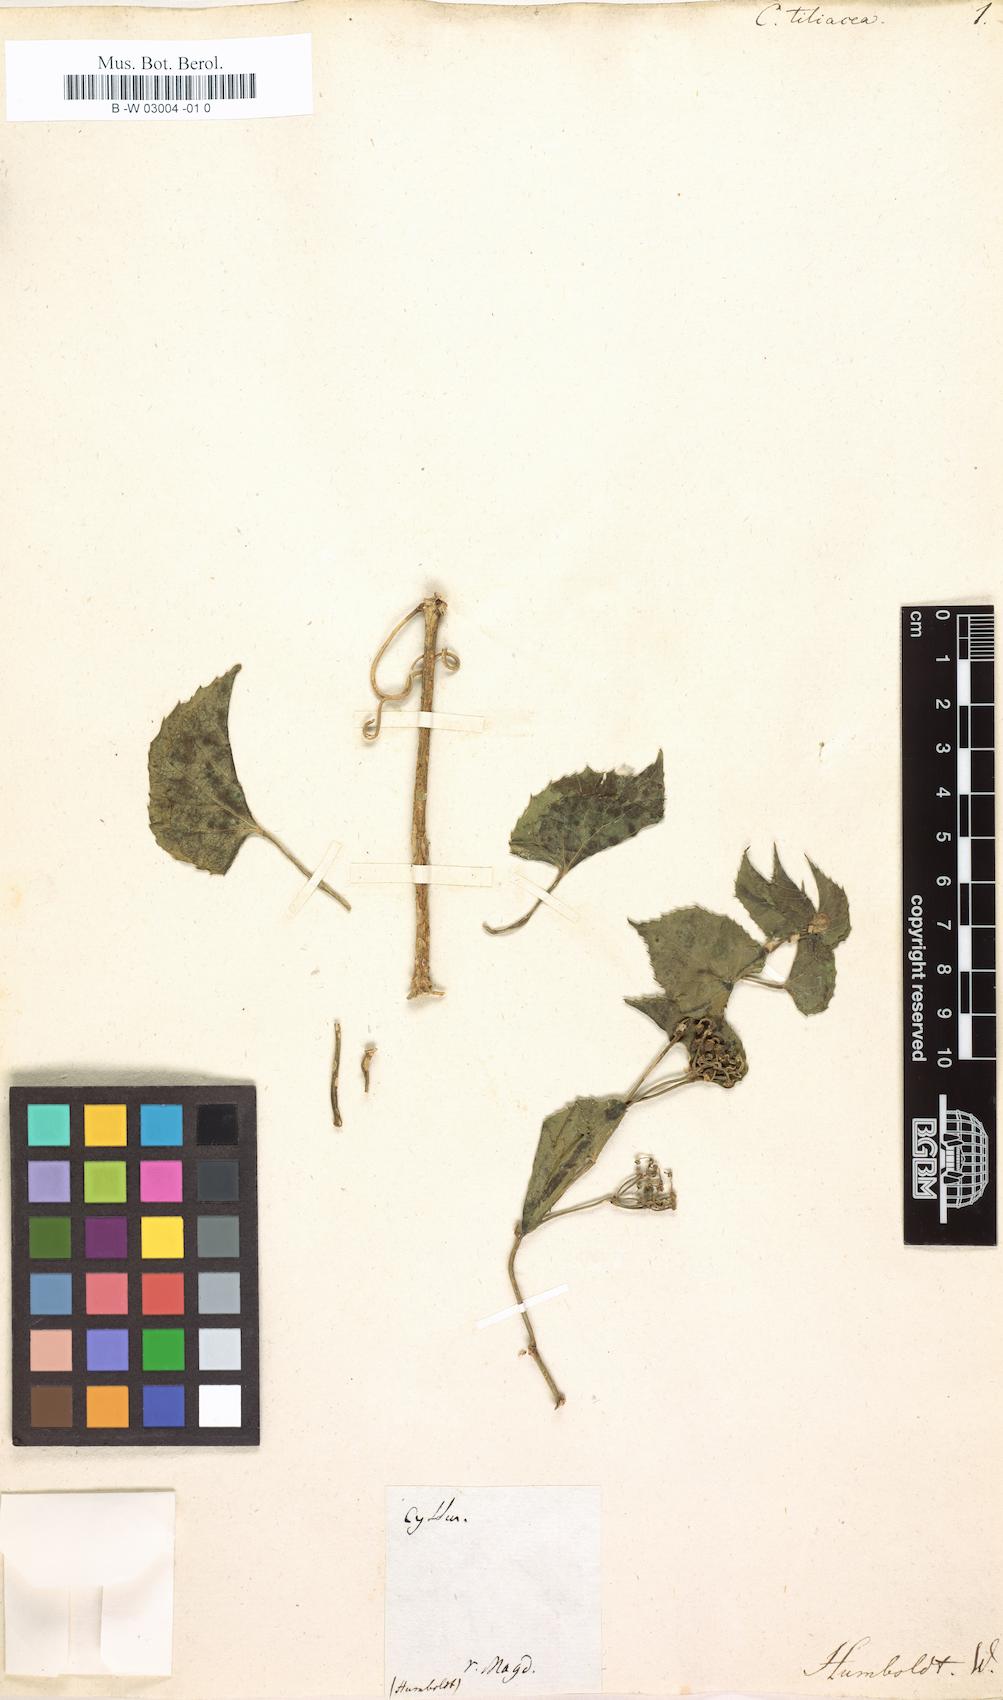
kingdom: Plantae
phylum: Tracheophyta
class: Magnoliopsida
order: Vitales
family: Vitaceae
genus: Cissus
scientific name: Cissus tiliacea
